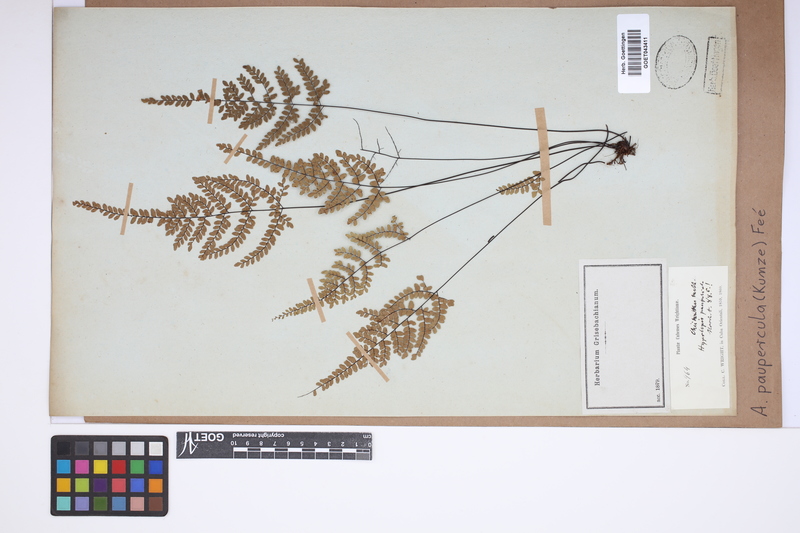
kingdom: Plantae
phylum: Tracheophyta
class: Polypodiopsida
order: Polypodiales
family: Pteridaceae
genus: Adiantopsis
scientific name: Adiantopsis paupercula
